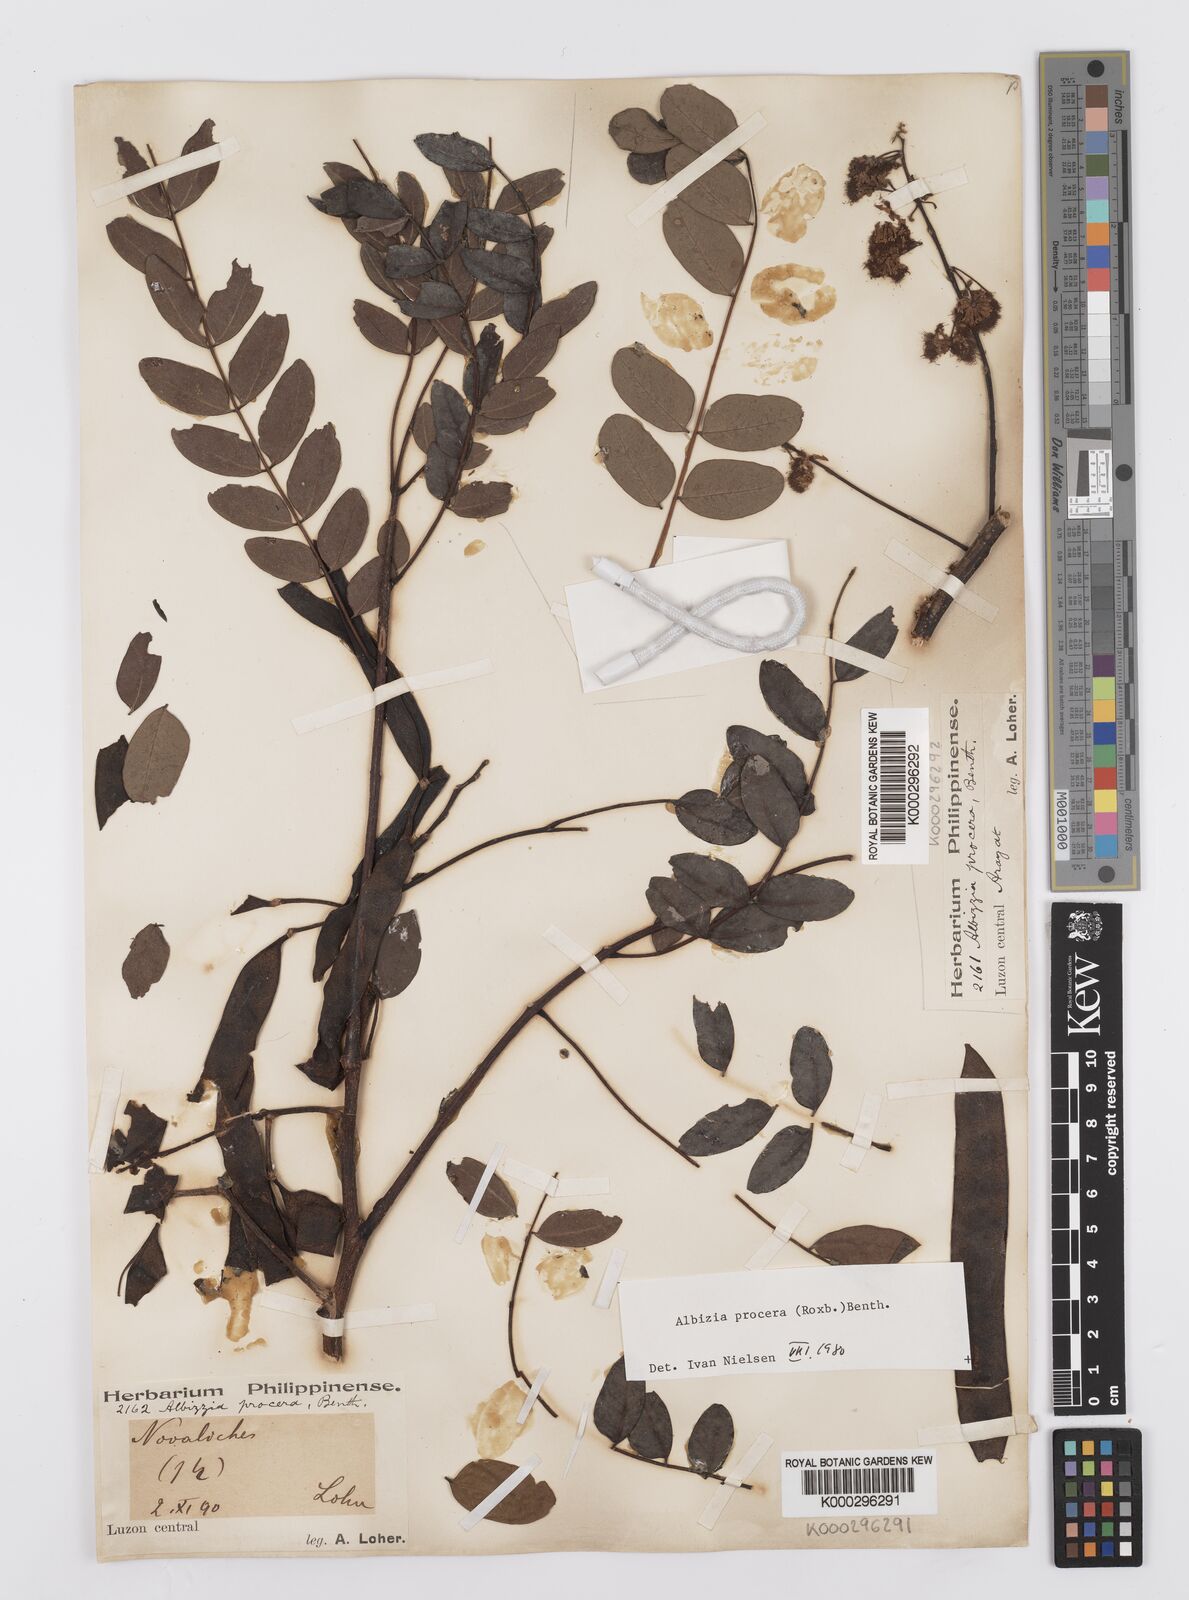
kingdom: Plantae
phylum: Tracheophyta
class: Magnoliopsida
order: Fabales
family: Fabaceae
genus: Albizia
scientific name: Albizia procera
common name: Tall albizia
